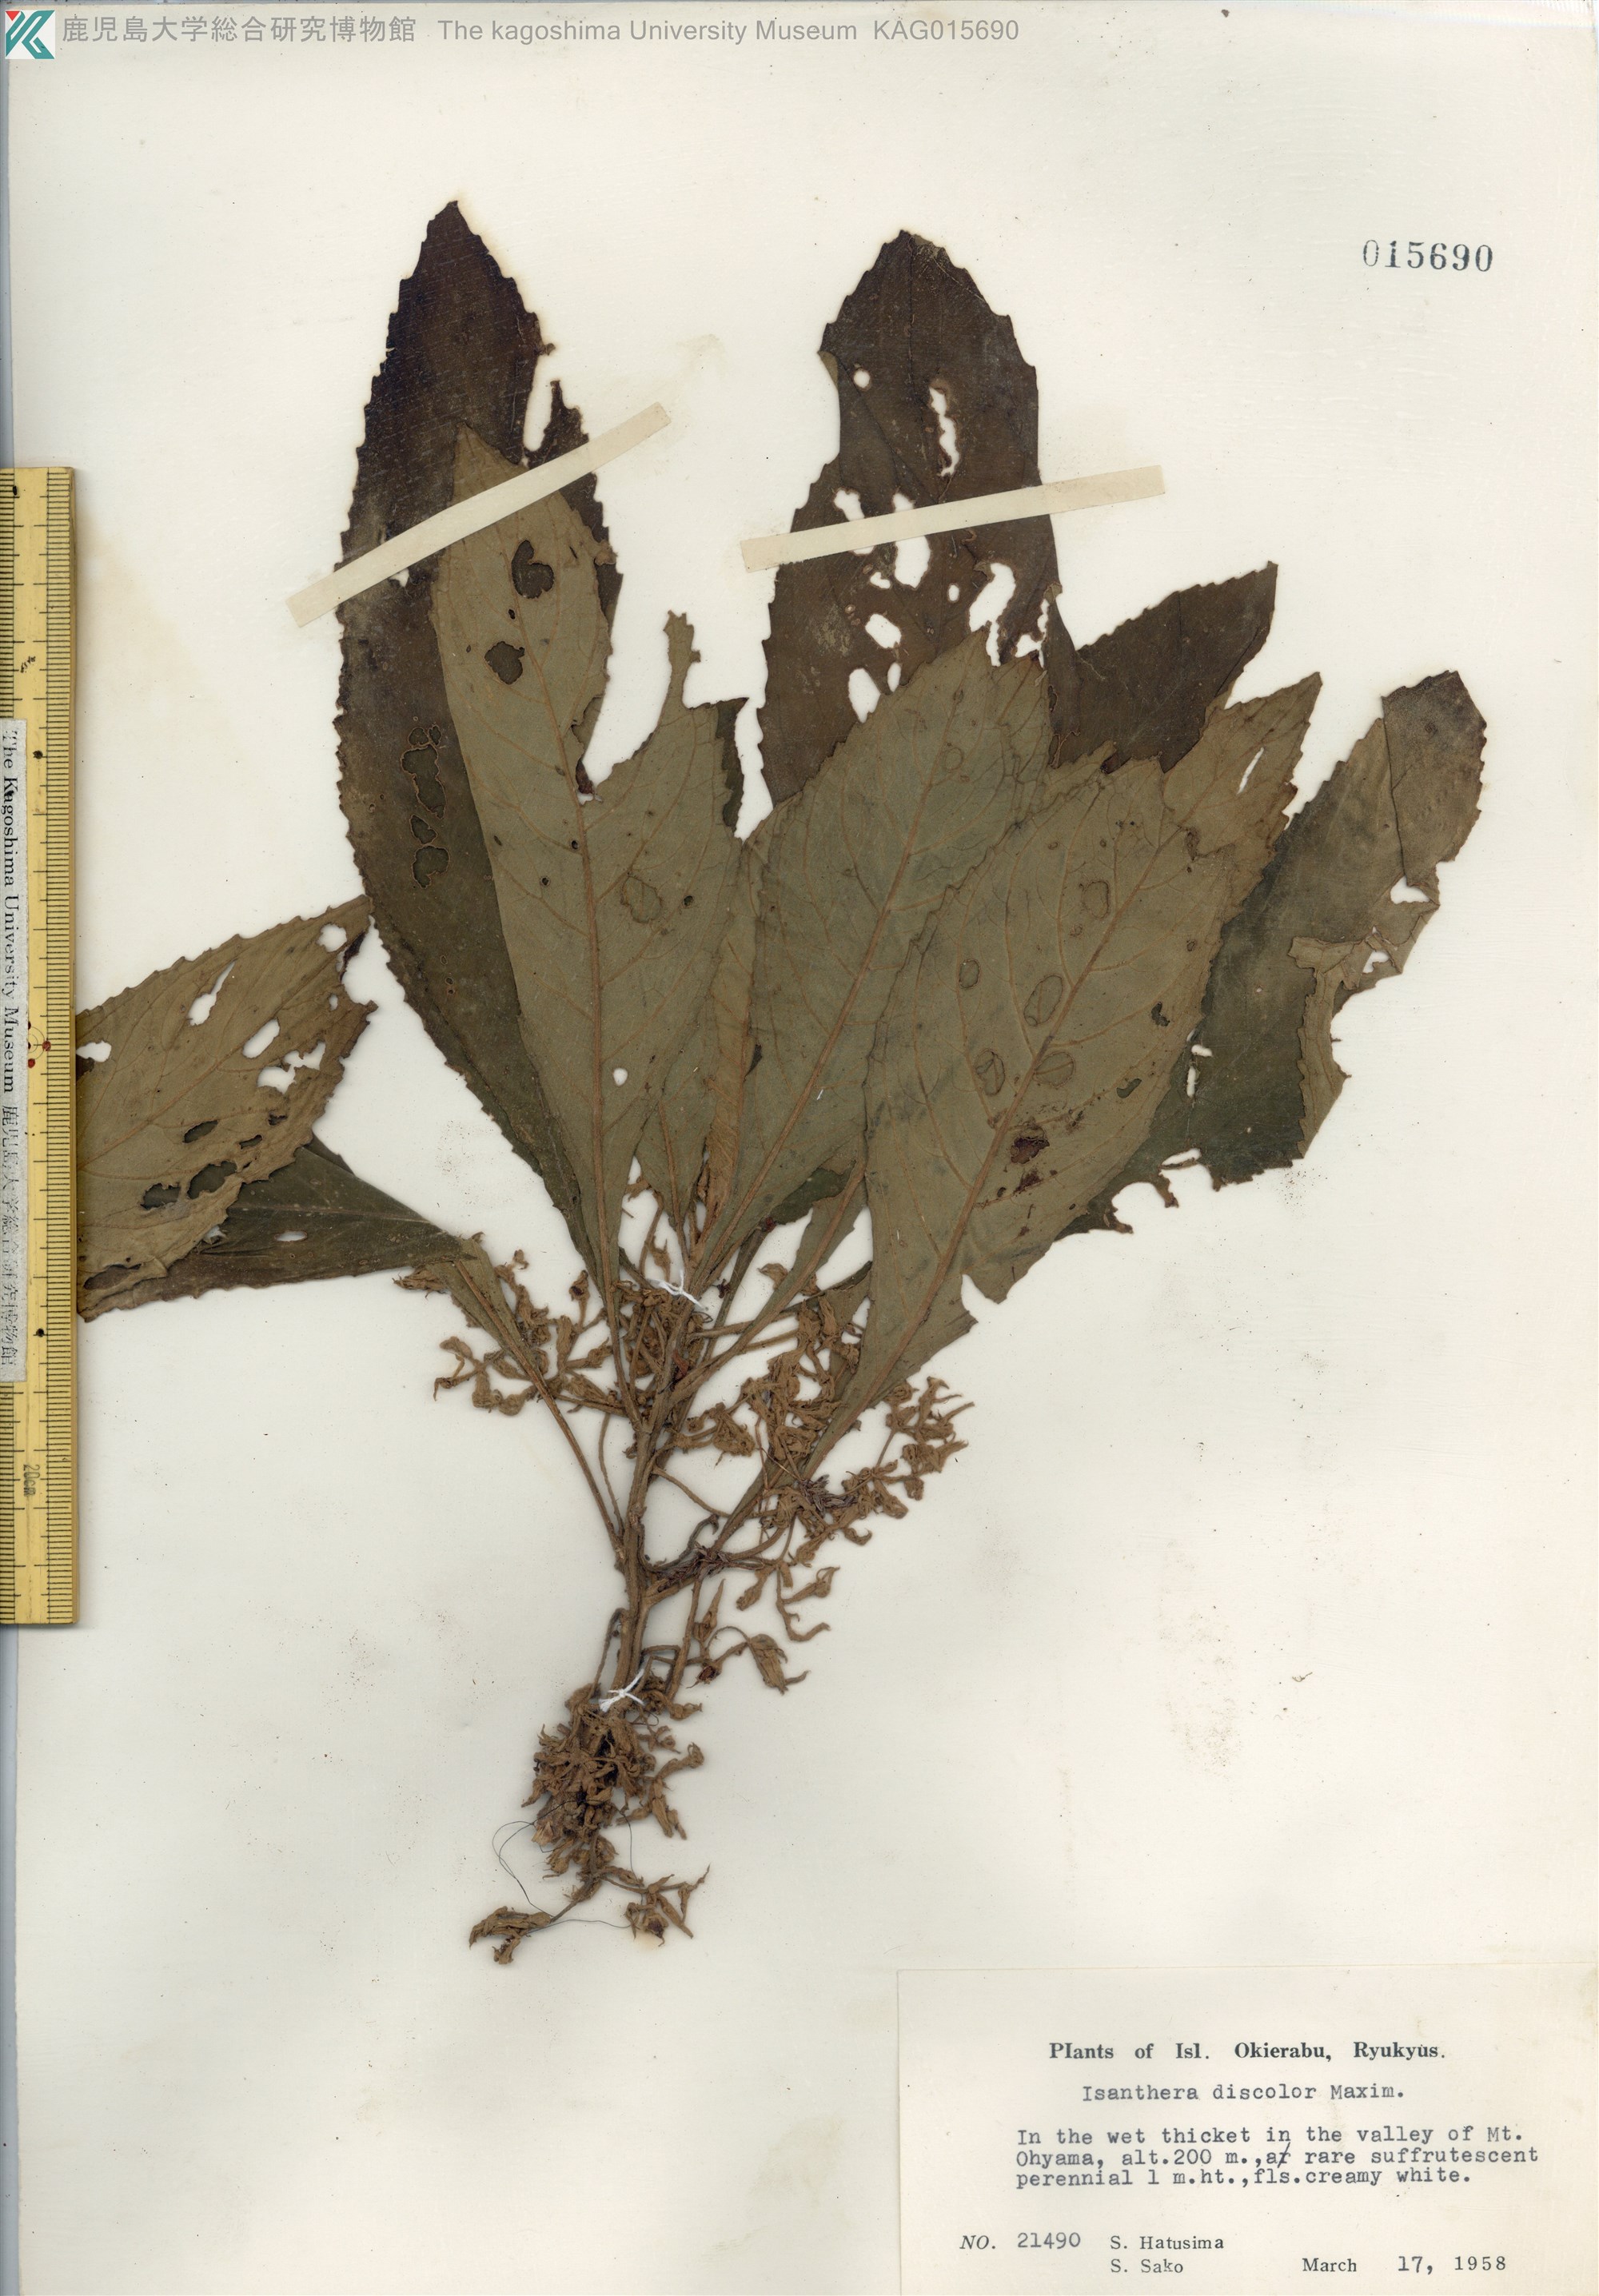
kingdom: Plantae
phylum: Tracheophyta
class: Magnoliopsida
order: Lamiales
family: Gesneriaceae
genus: Rhynchotechum
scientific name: Rhynchotechum discolor
